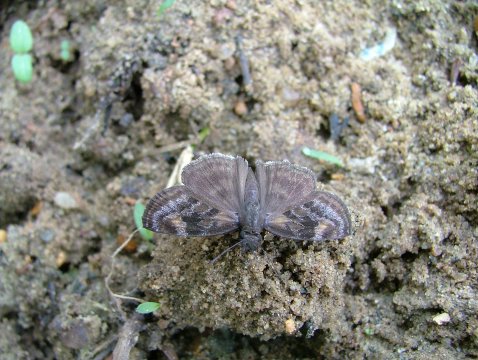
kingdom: Animalia
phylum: Arthropoda
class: Insecta
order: Lepidoptera
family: Hesperiidae
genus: Gesta
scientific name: Gesta gesta
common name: False Duskywing
